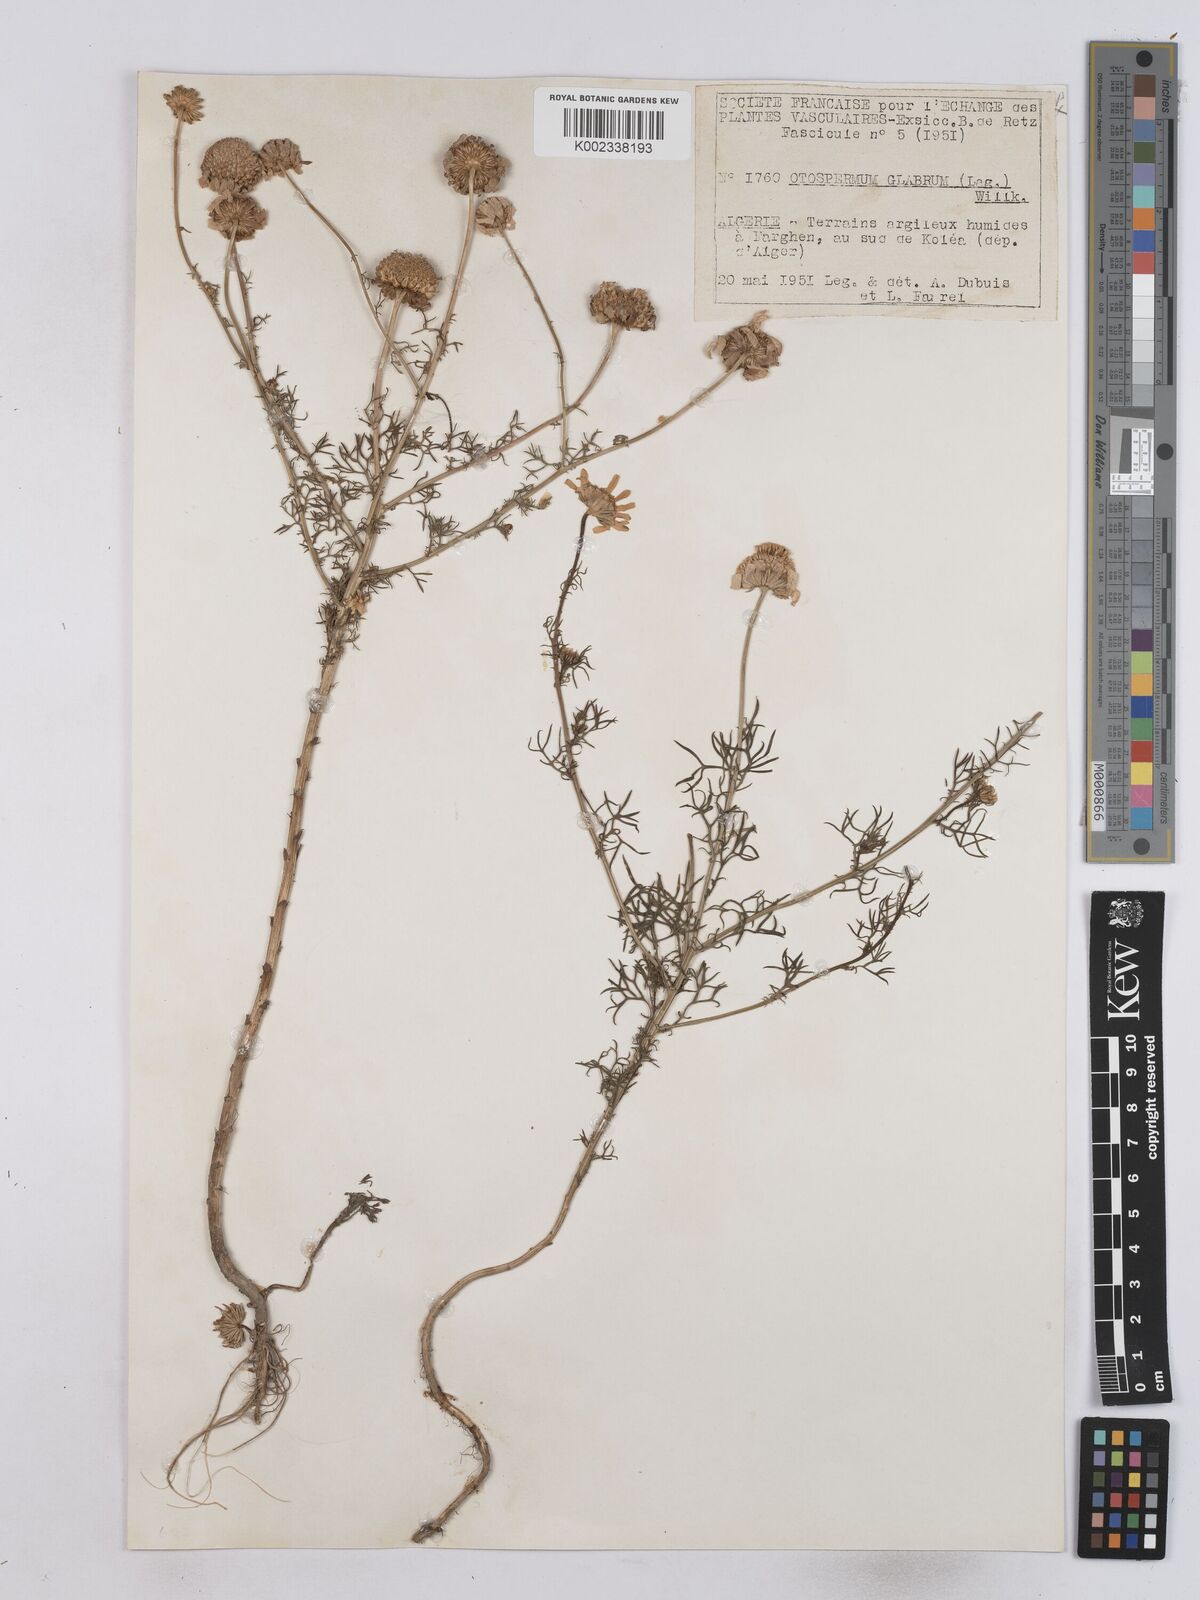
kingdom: Plantae
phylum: Tracheophyta
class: Magnoliopsida
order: Asterales
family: Asteraceae
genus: Otospermum
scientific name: Otospermum glabrum
